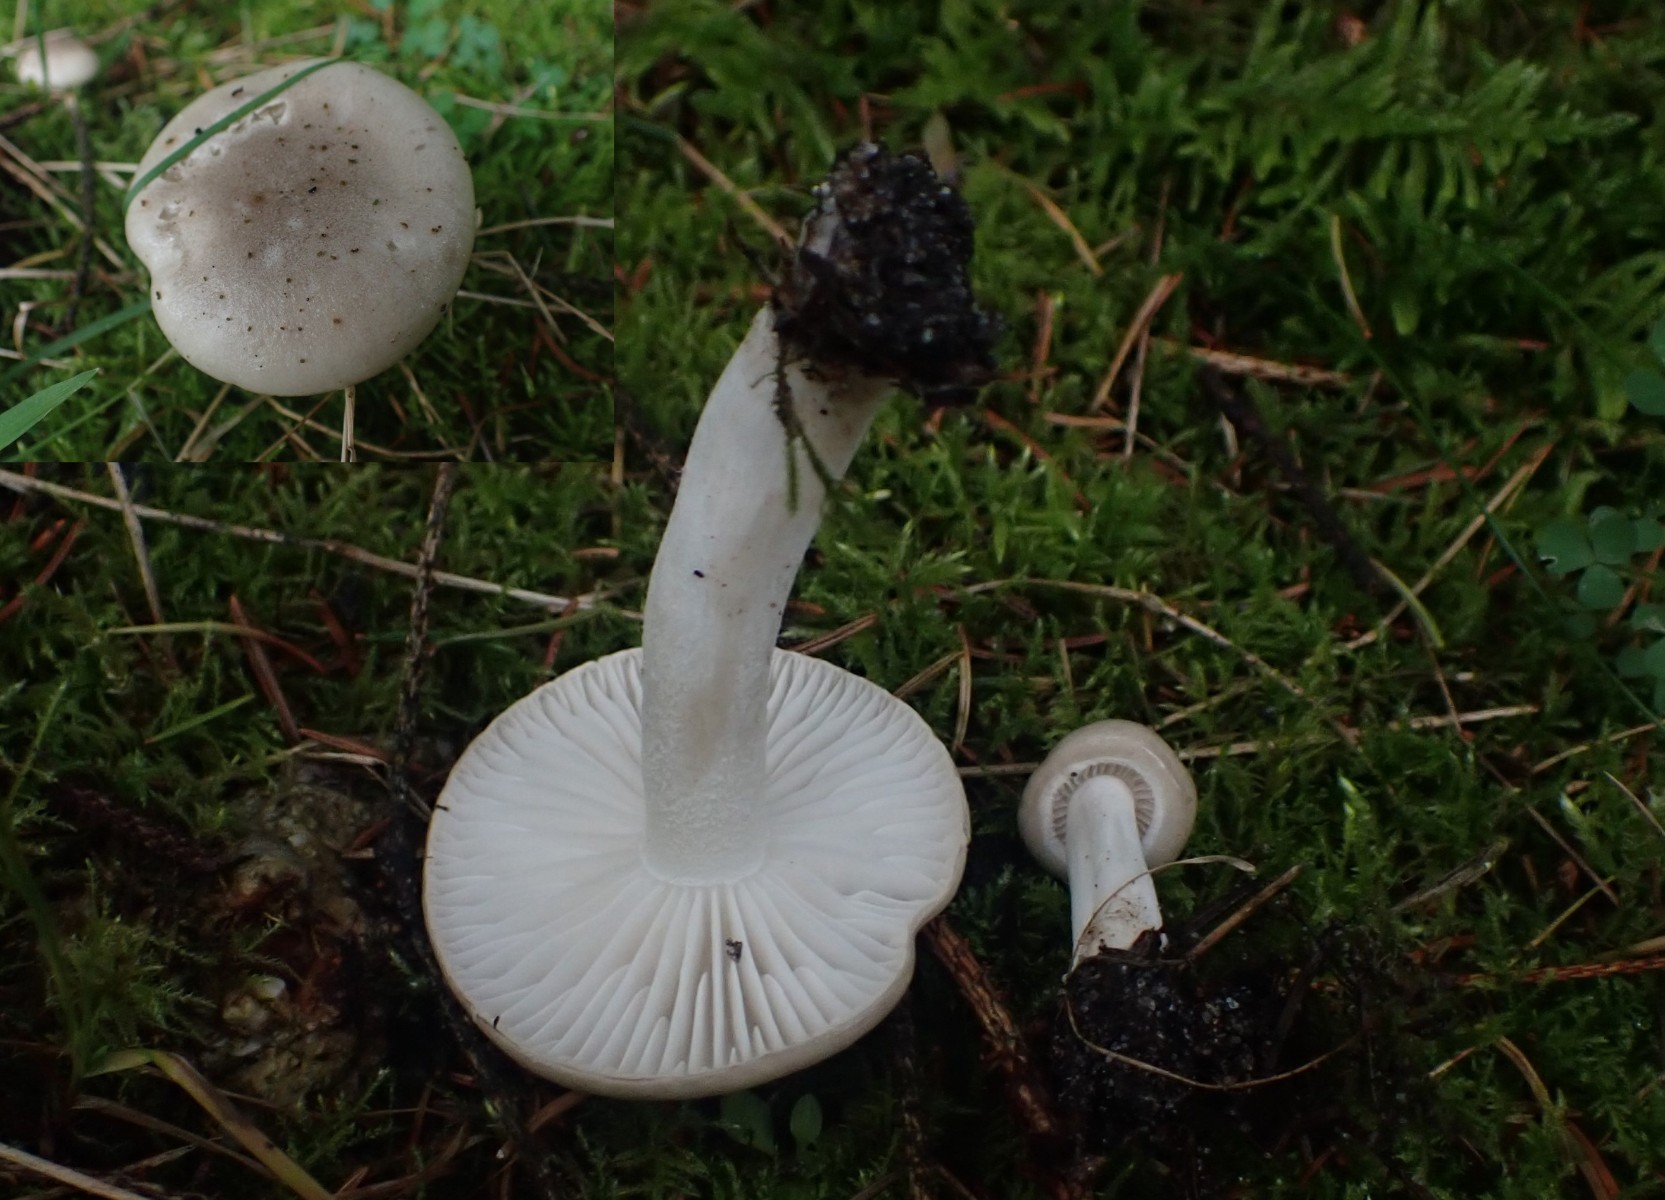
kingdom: Fungi
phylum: Basidiomycota
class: Agaricomycetes
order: Agaricales
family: Hygrophoraceae
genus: Hygrophorus
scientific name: Hygrophorus agathosmus
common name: vellugtende sneglehat
